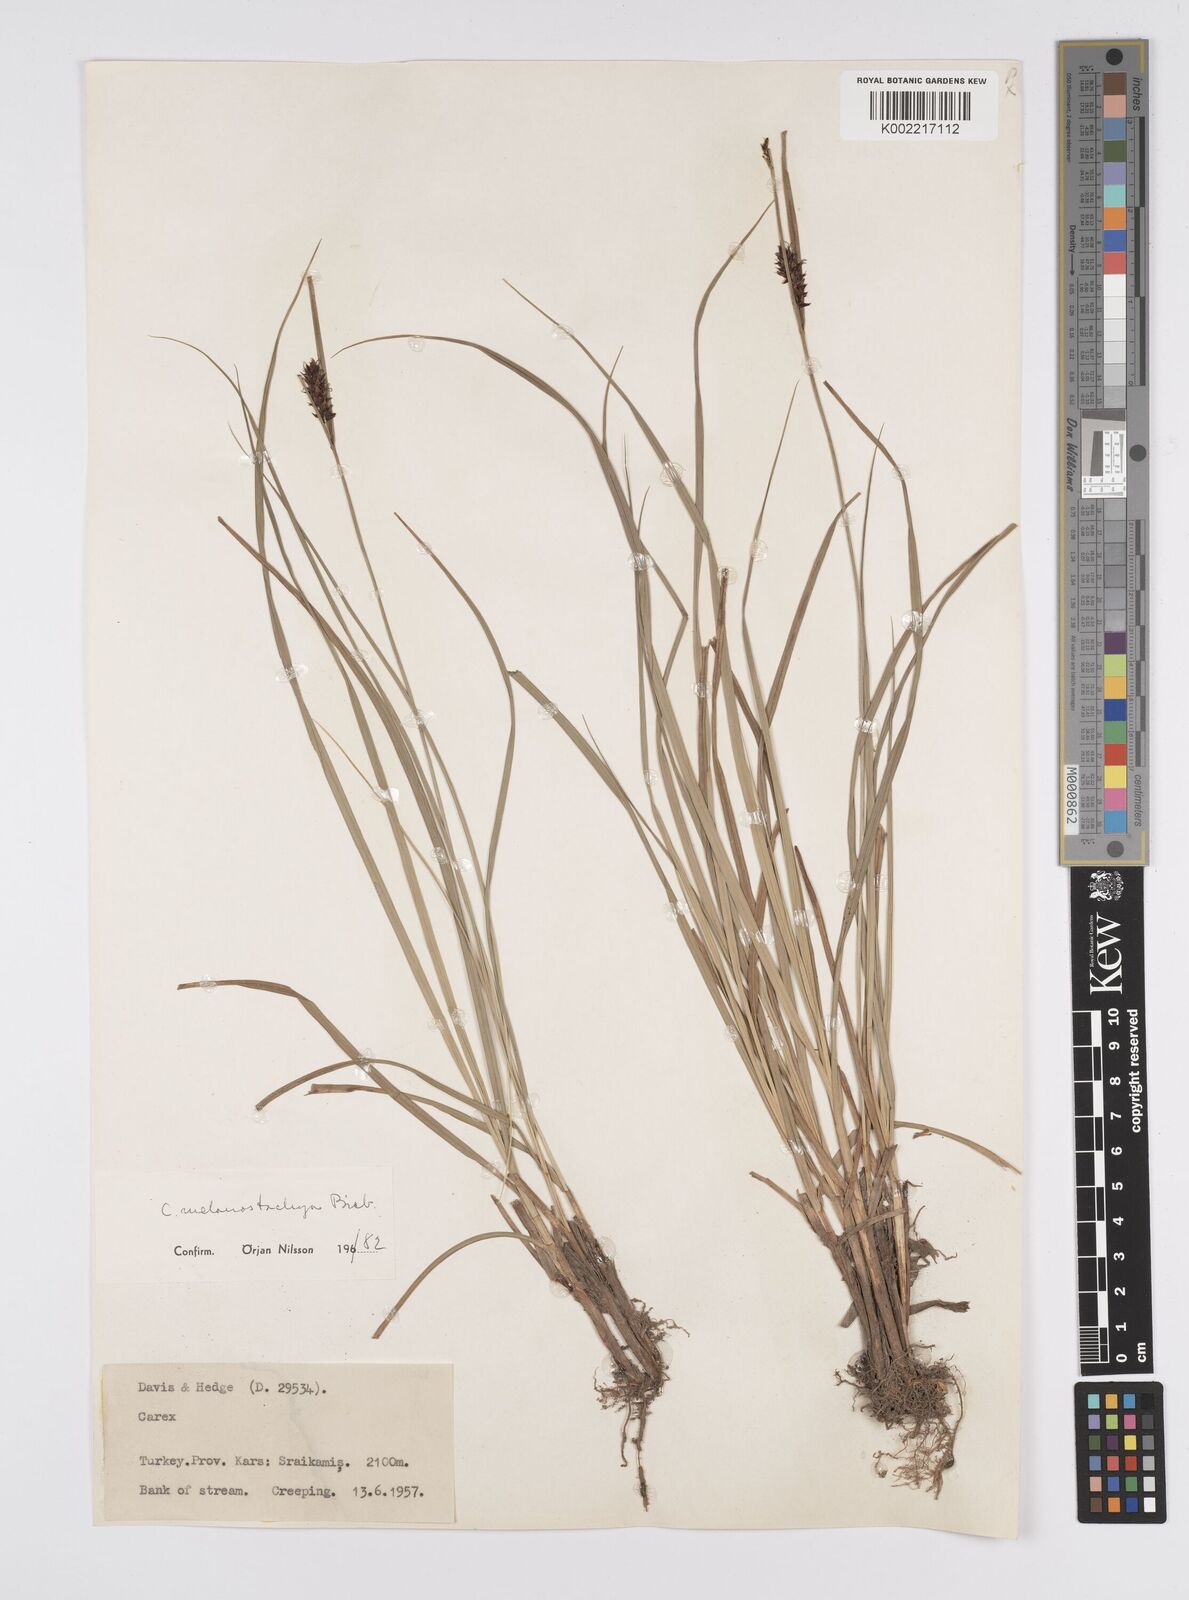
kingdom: Plantae
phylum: Tracheophyta
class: Liliopsida
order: Poales
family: Cyperaceae
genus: Carex
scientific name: Carex melanostachya
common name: Black-spiked sedge
